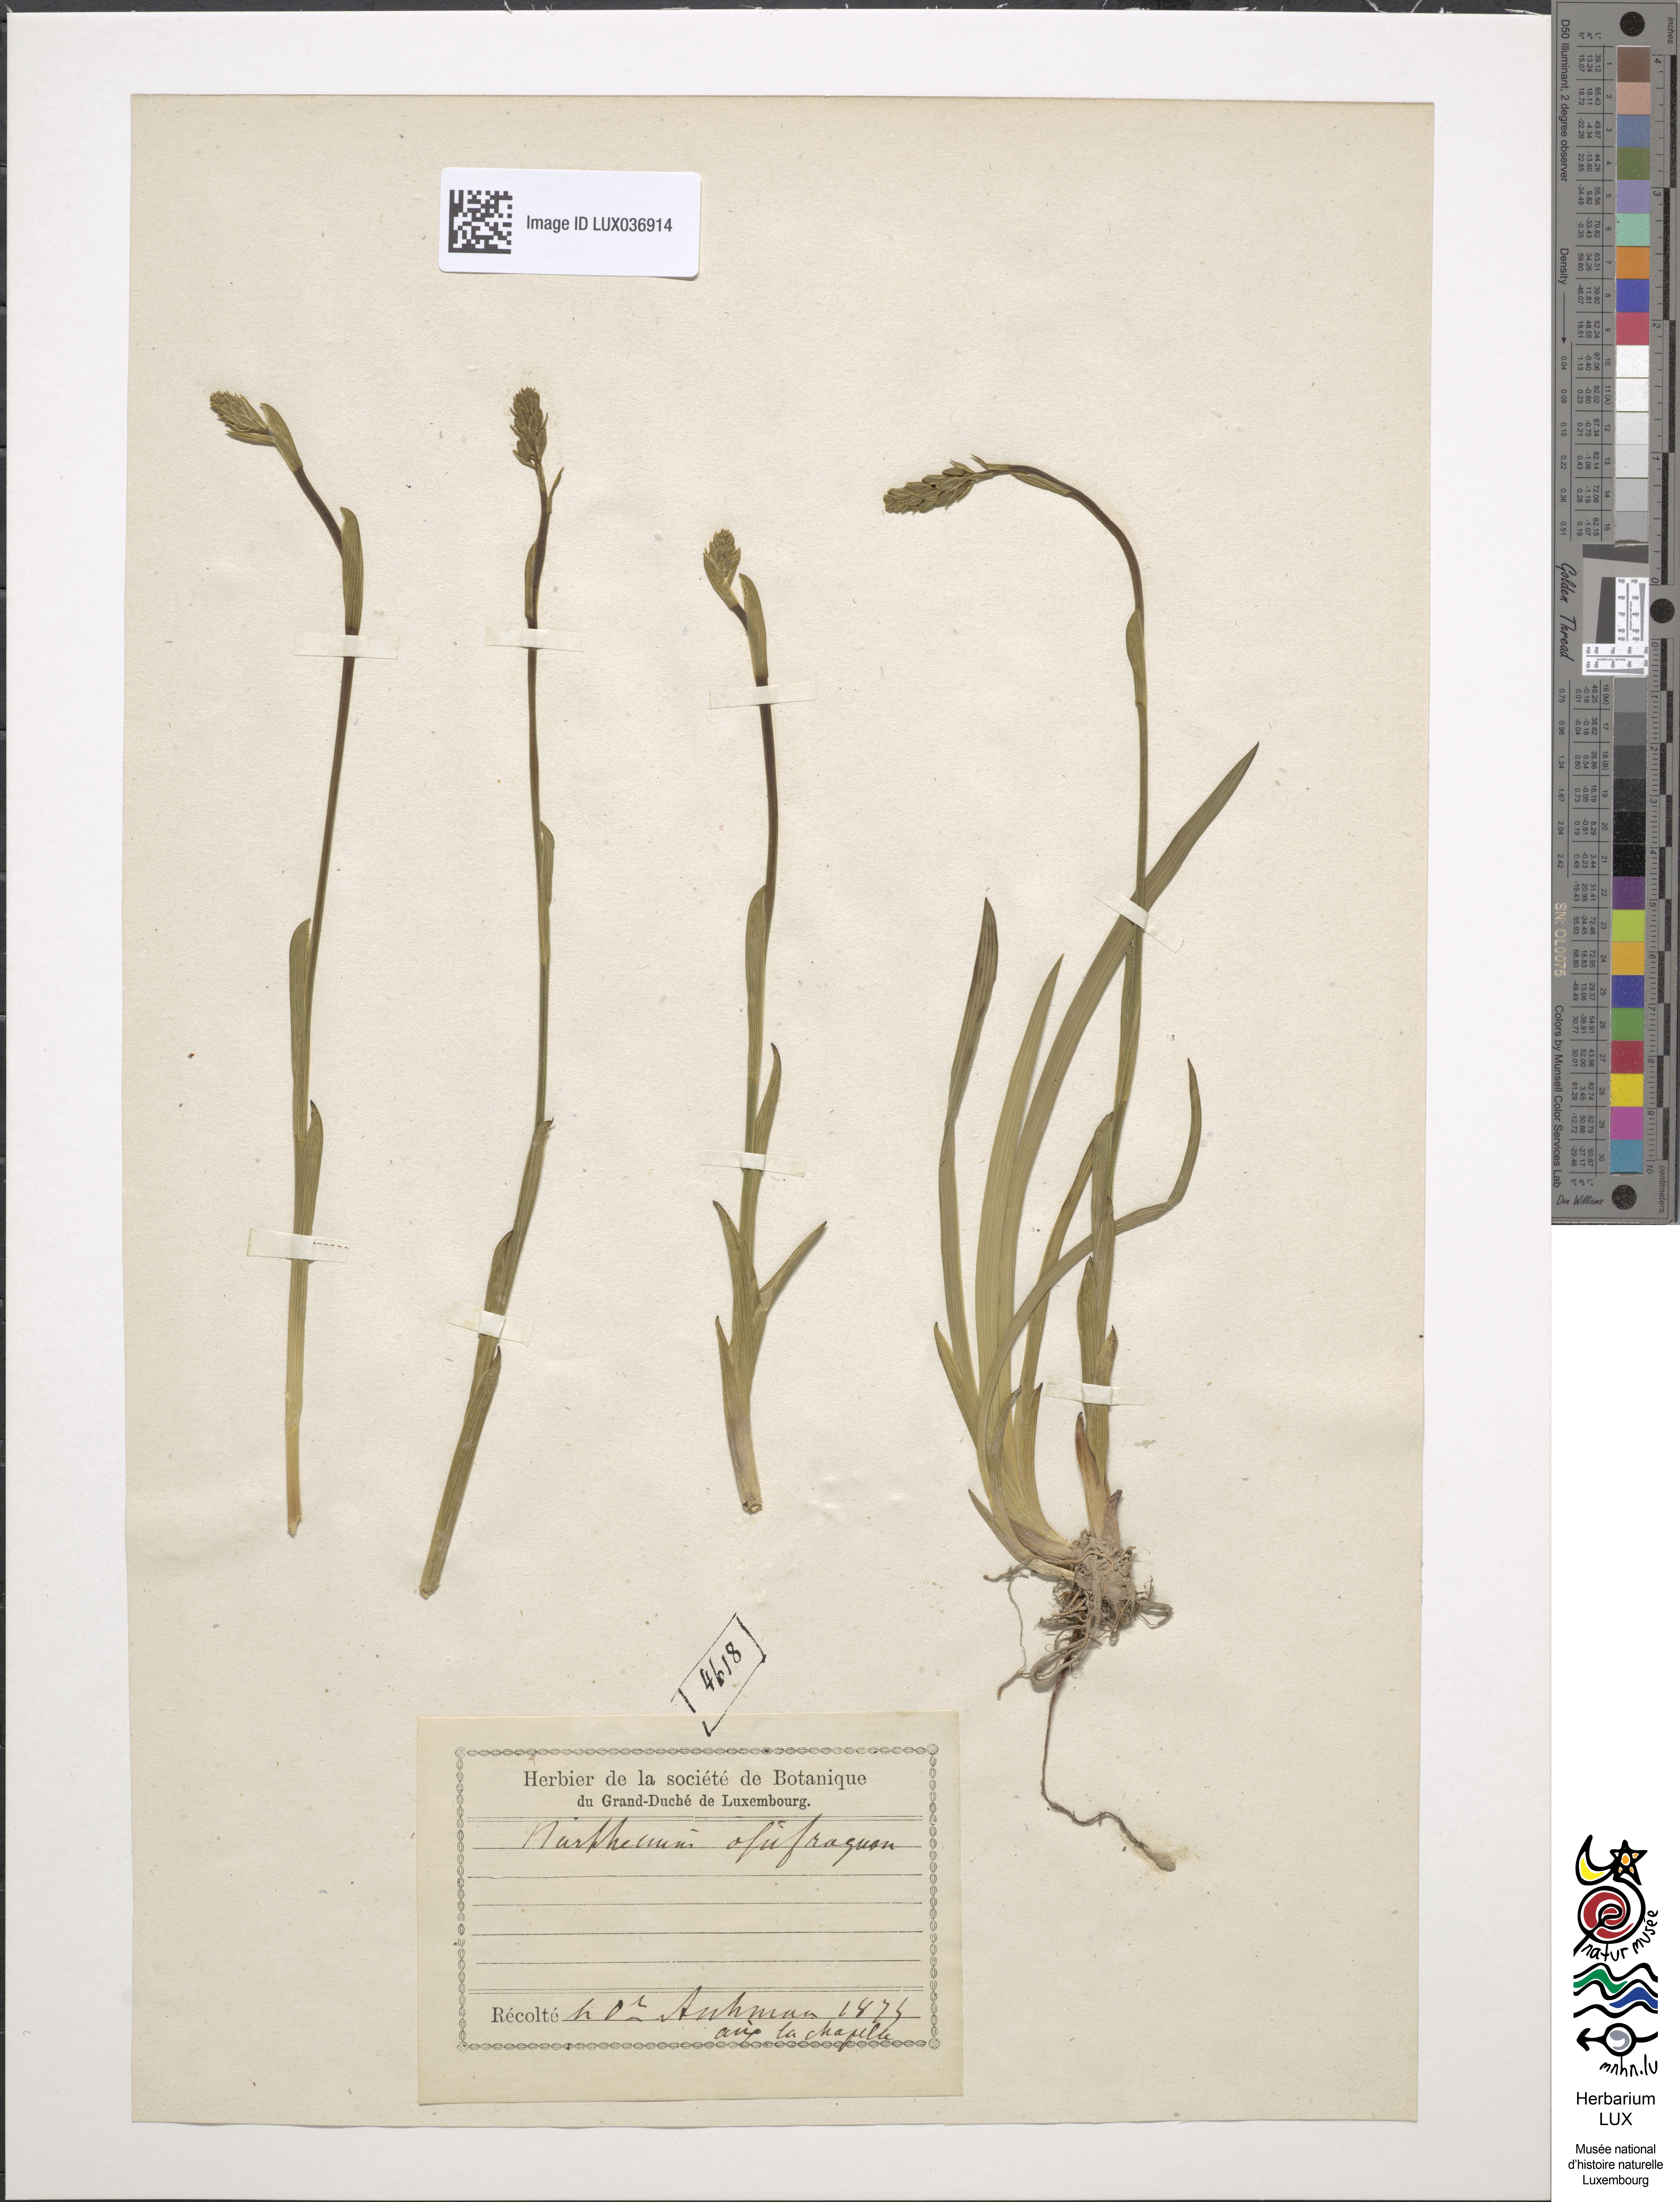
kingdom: Plantae
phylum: Tracheophyta
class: Liliopsida
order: Dioscoreales
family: Nartheciaceae
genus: Narthecium
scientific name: Narthecium ossifragum
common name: Bog asphodel
